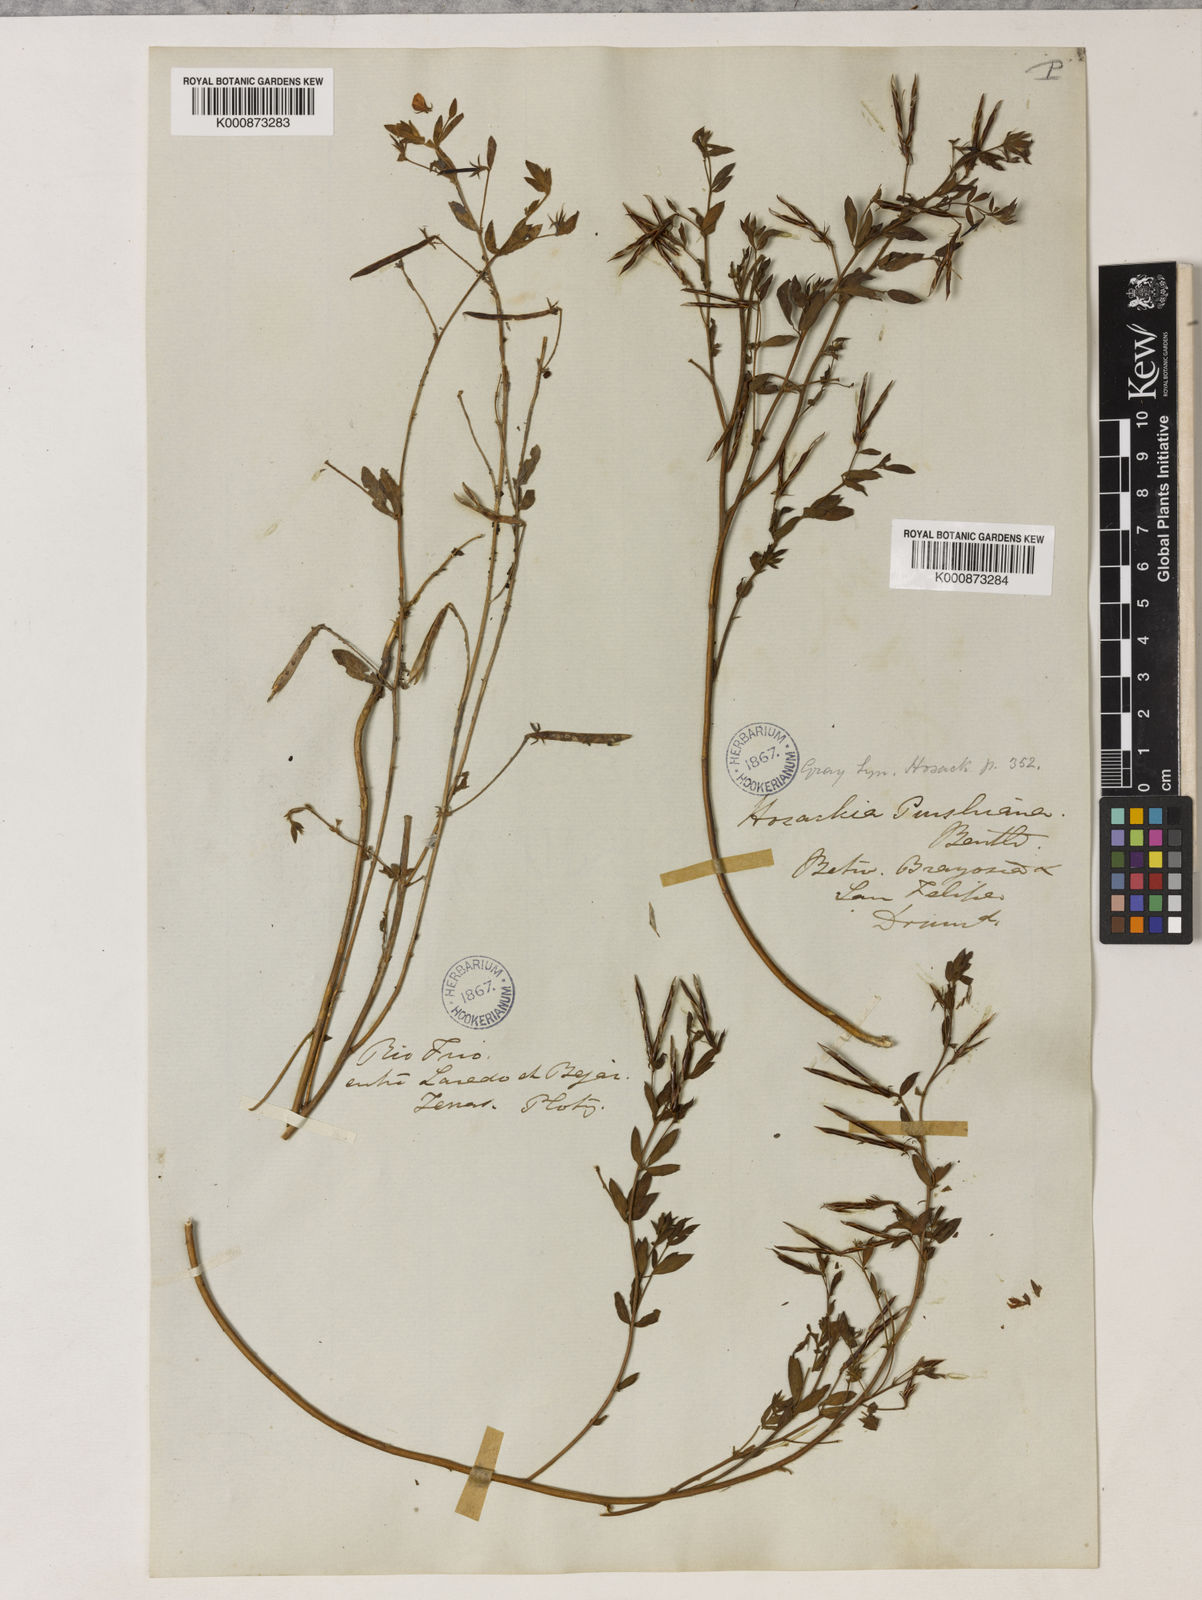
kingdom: Plantae
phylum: Tracheophyta
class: Magnoliopsida
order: Fabales
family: Fabaceae
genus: Collaea
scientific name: Collaea speciosa
